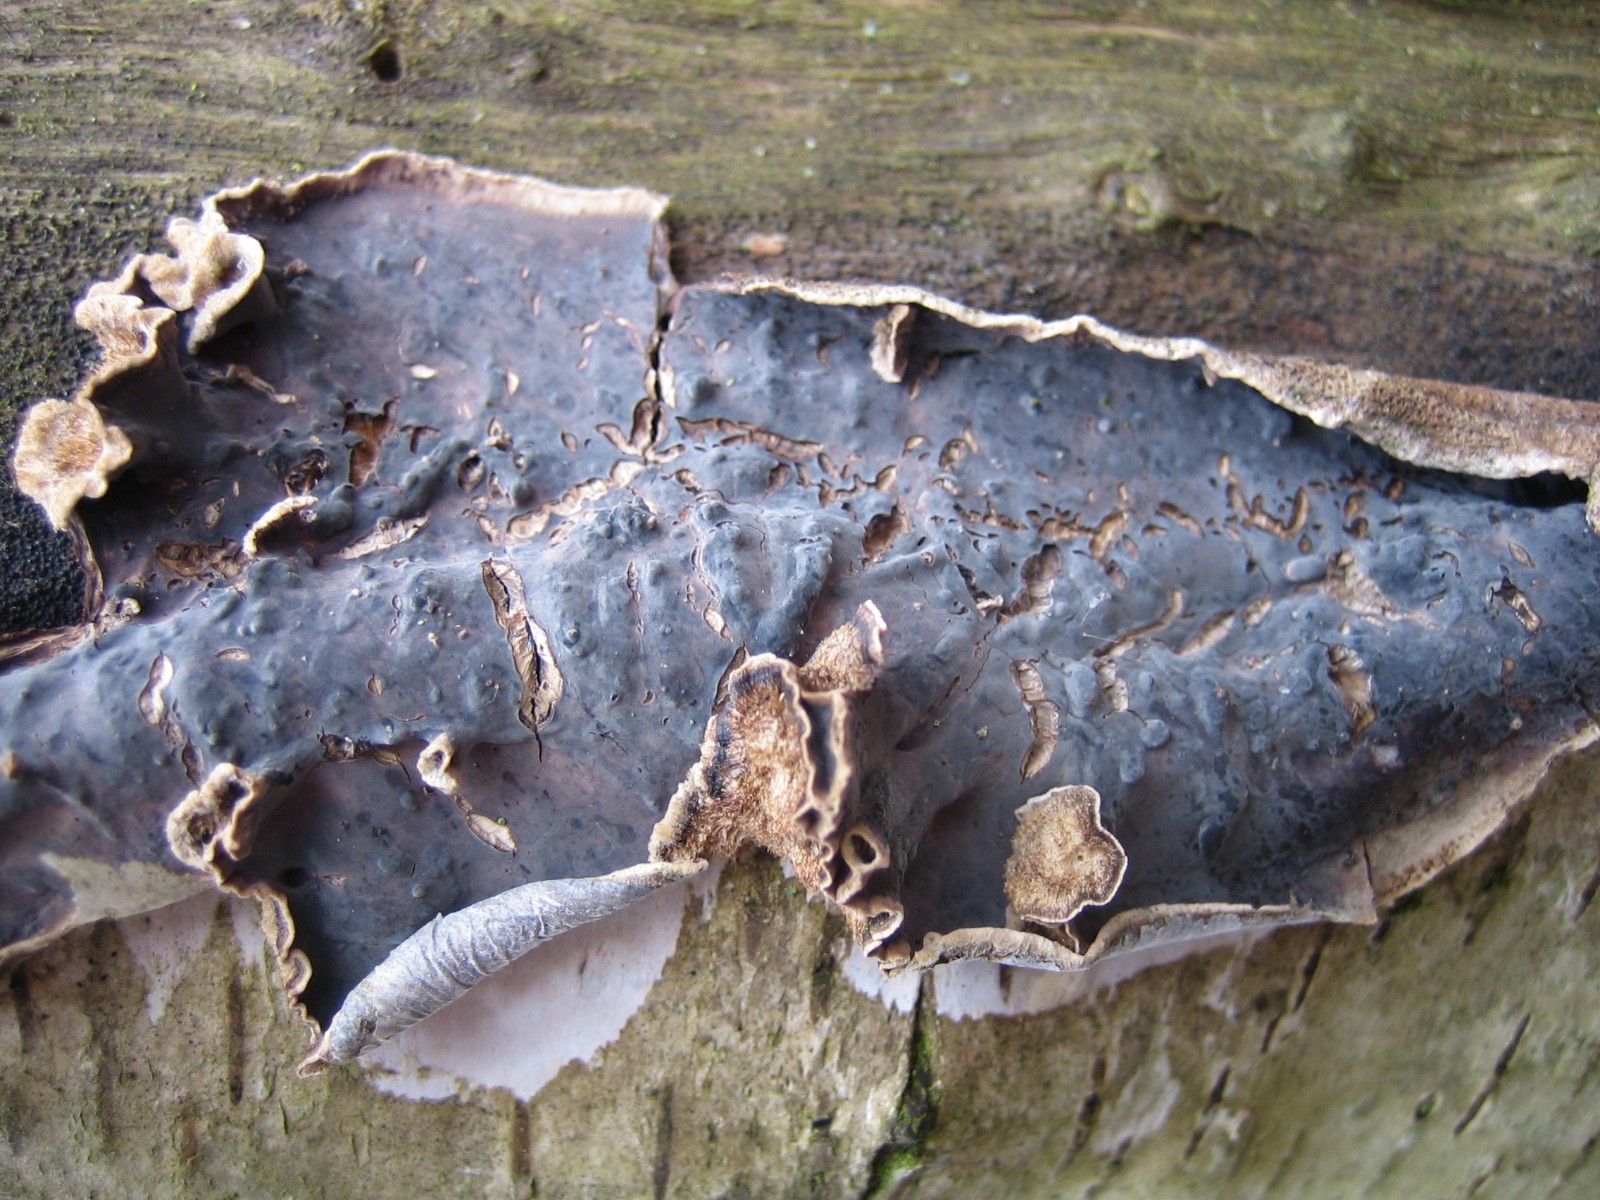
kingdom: Fungi
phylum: Basidiomycota
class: Agaricomycetes
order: Agaricales
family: Cyphellaceae
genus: Chondrostereum
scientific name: Chondrostereum purpureum
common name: purpurlædersvamp
